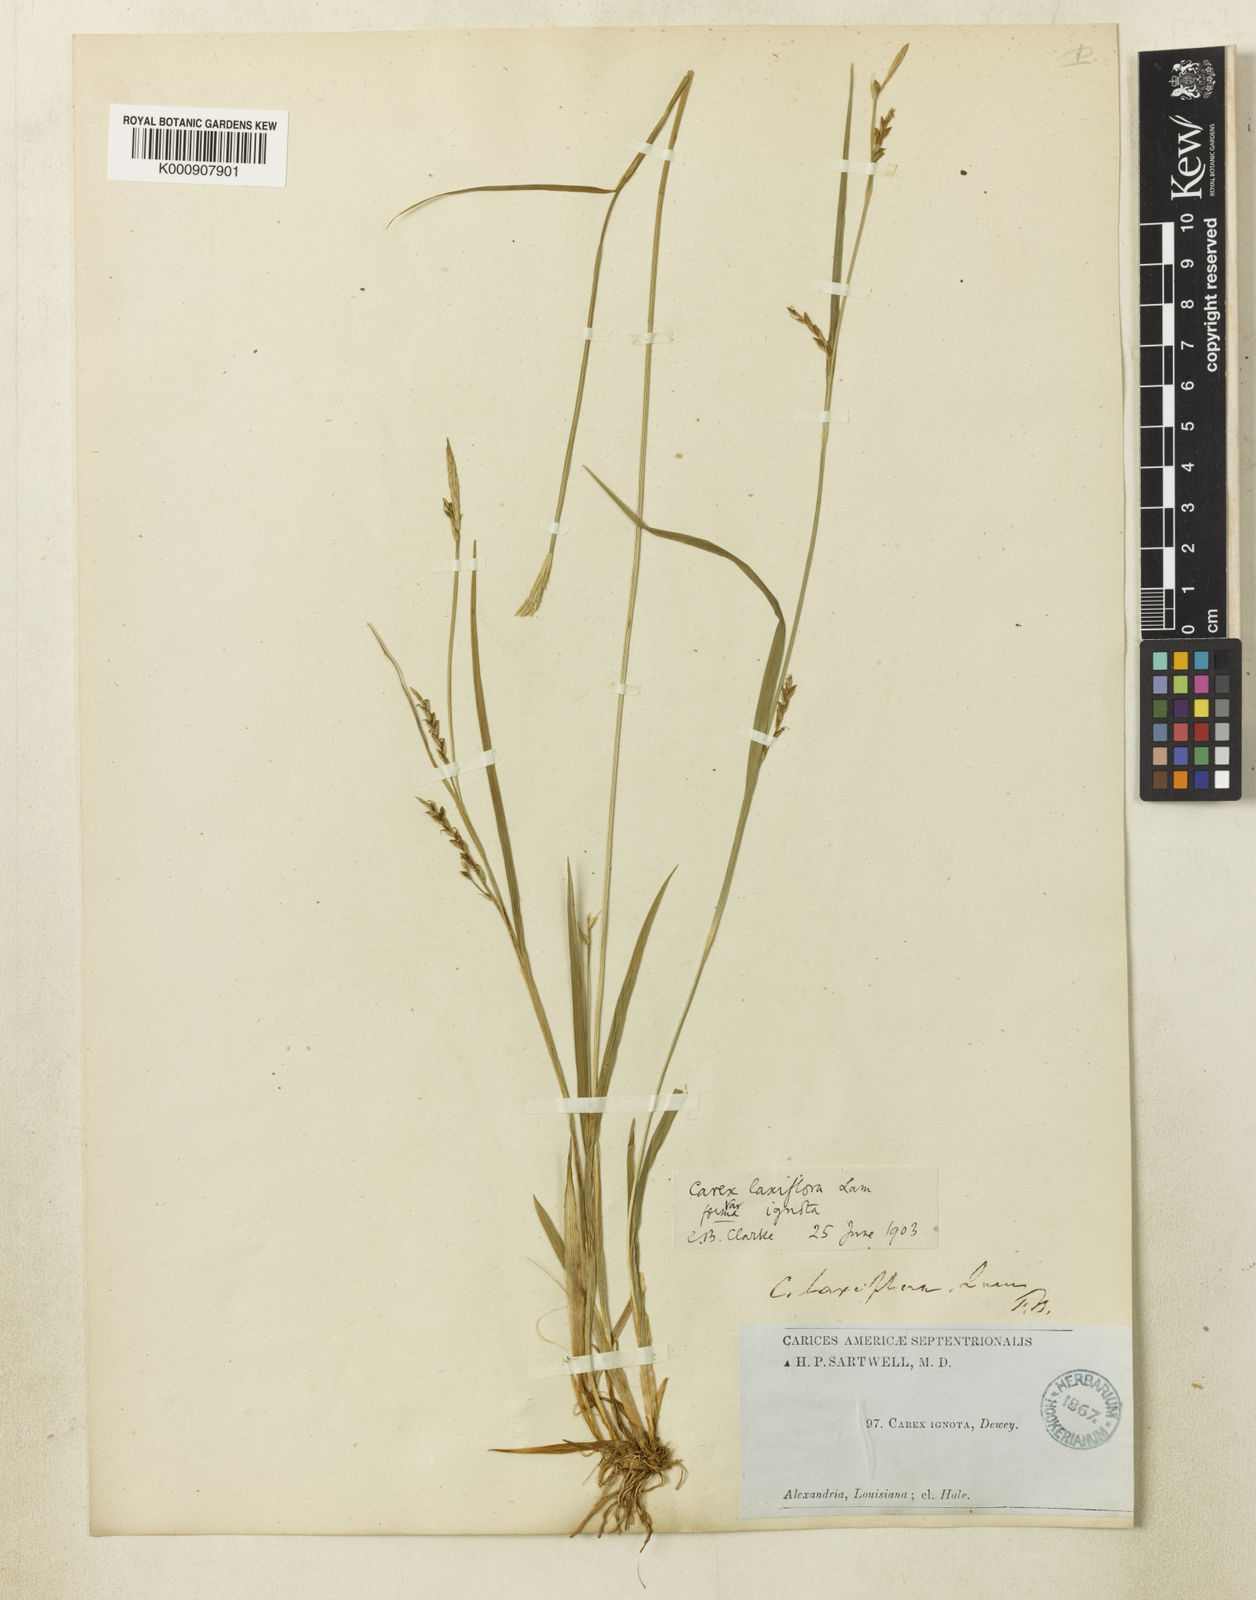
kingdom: Plantae
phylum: Tracheophyta
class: Liliopsida
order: Poales
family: Cyperaceae
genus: Carex
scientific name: Carex striatula
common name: Lined sedge
